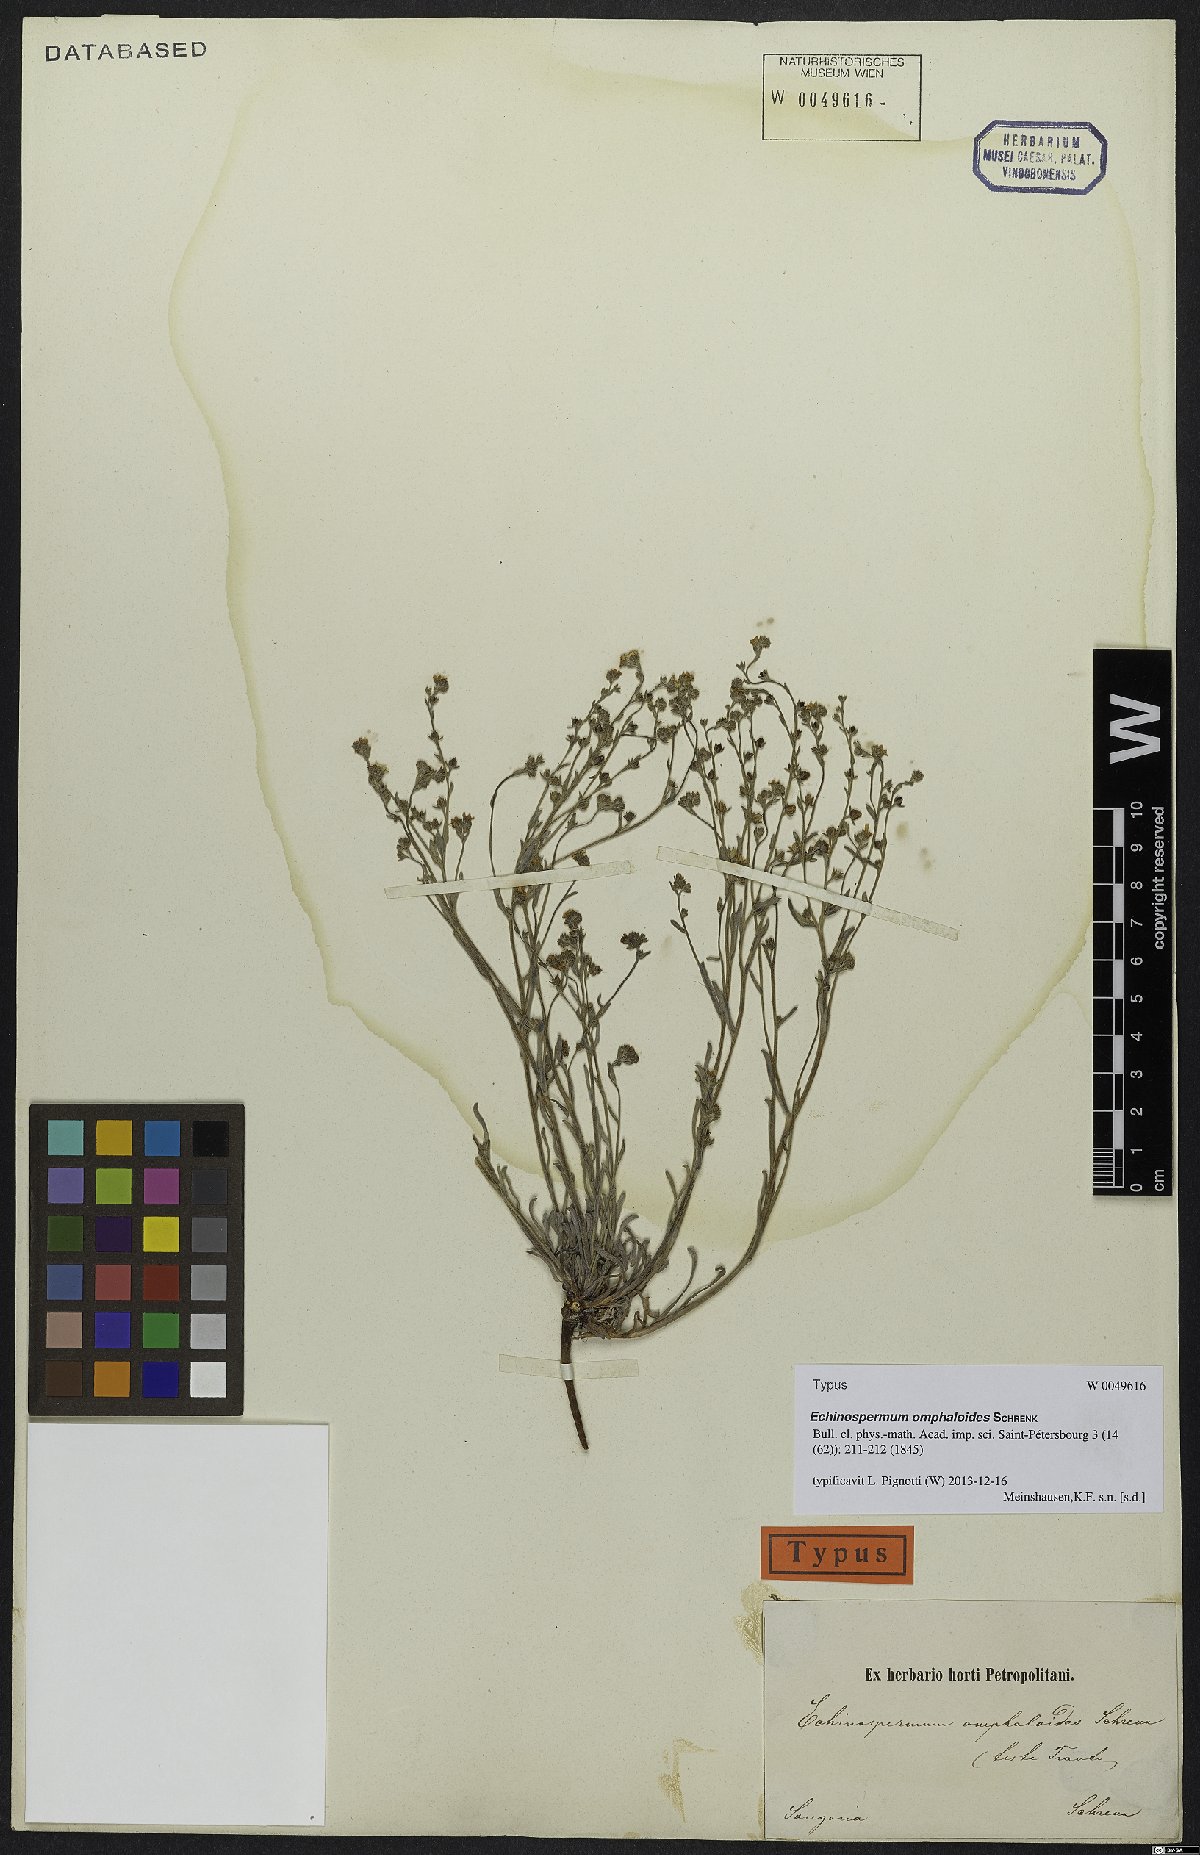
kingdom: Plantae
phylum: Tracheophyta
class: Magnoliopsida
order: Boraginales
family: Boraginaceae
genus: Lepechiniella
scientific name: Lepechiniella omphaloides
